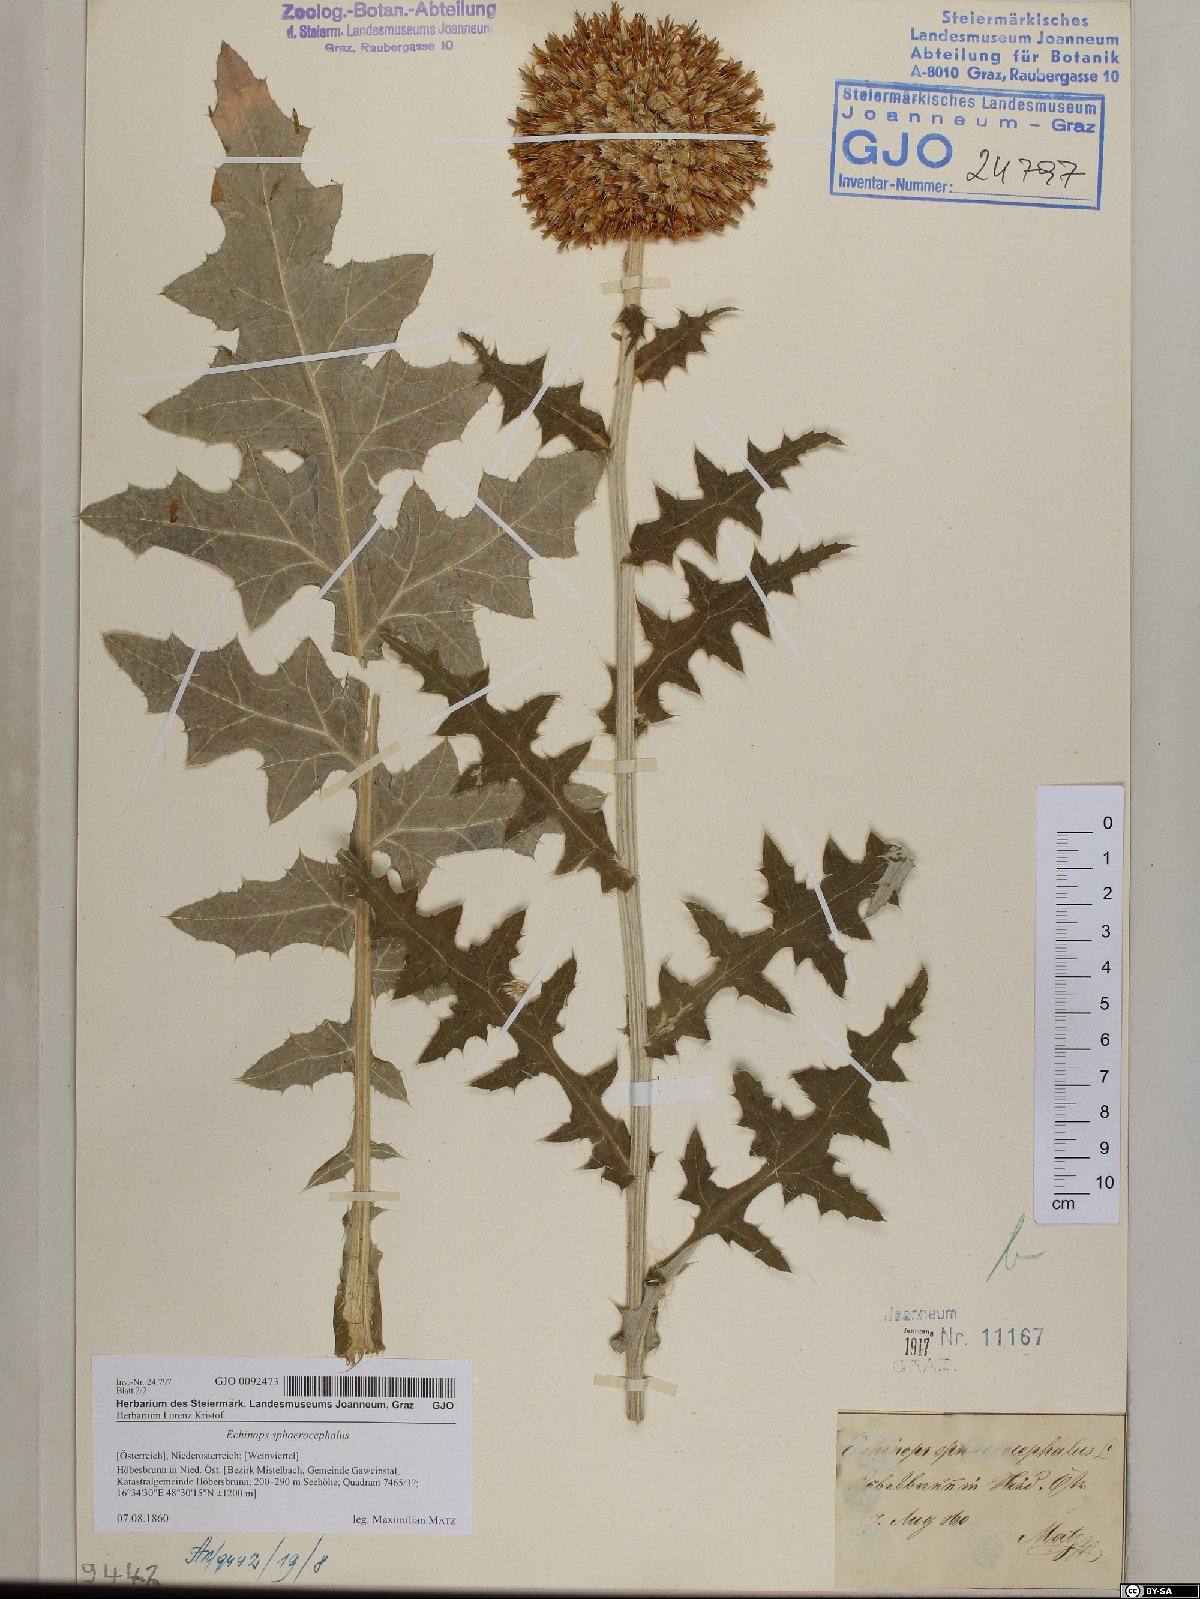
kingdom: Plantae
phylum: Tracheophyta
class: Magnoliopsida
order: Asterales
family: Asteraceae
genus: Echinops
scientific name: Echinops sphaerocephalus
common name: Glandular globe-thistle
